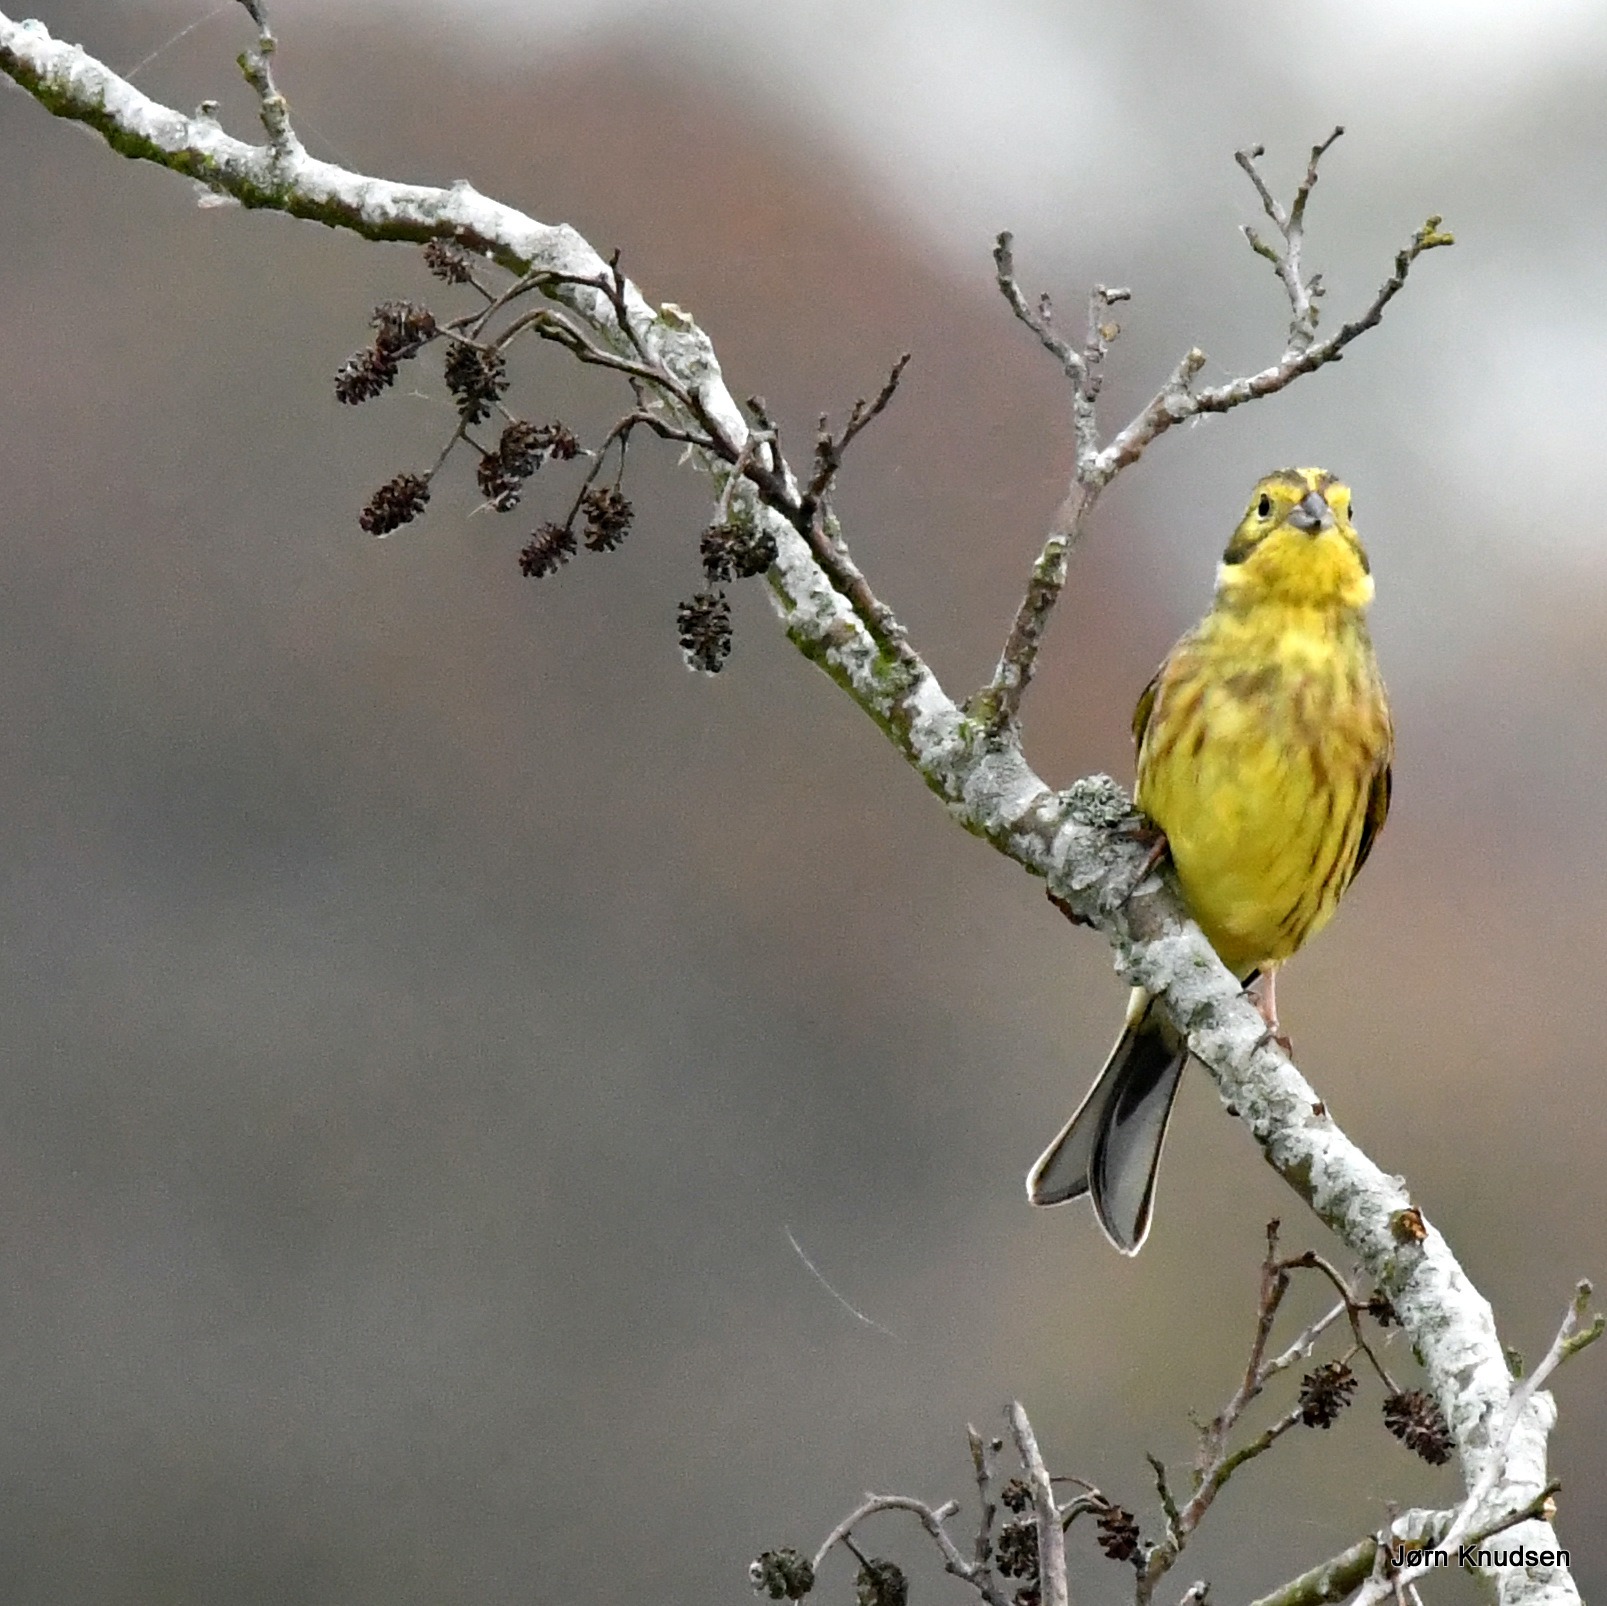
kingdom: Animalia
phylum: Chordata
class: Aves
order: Passeriformes
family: Emberizidae
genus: Emberiza
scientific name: Emberiza citrinella
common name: Gulspurv
